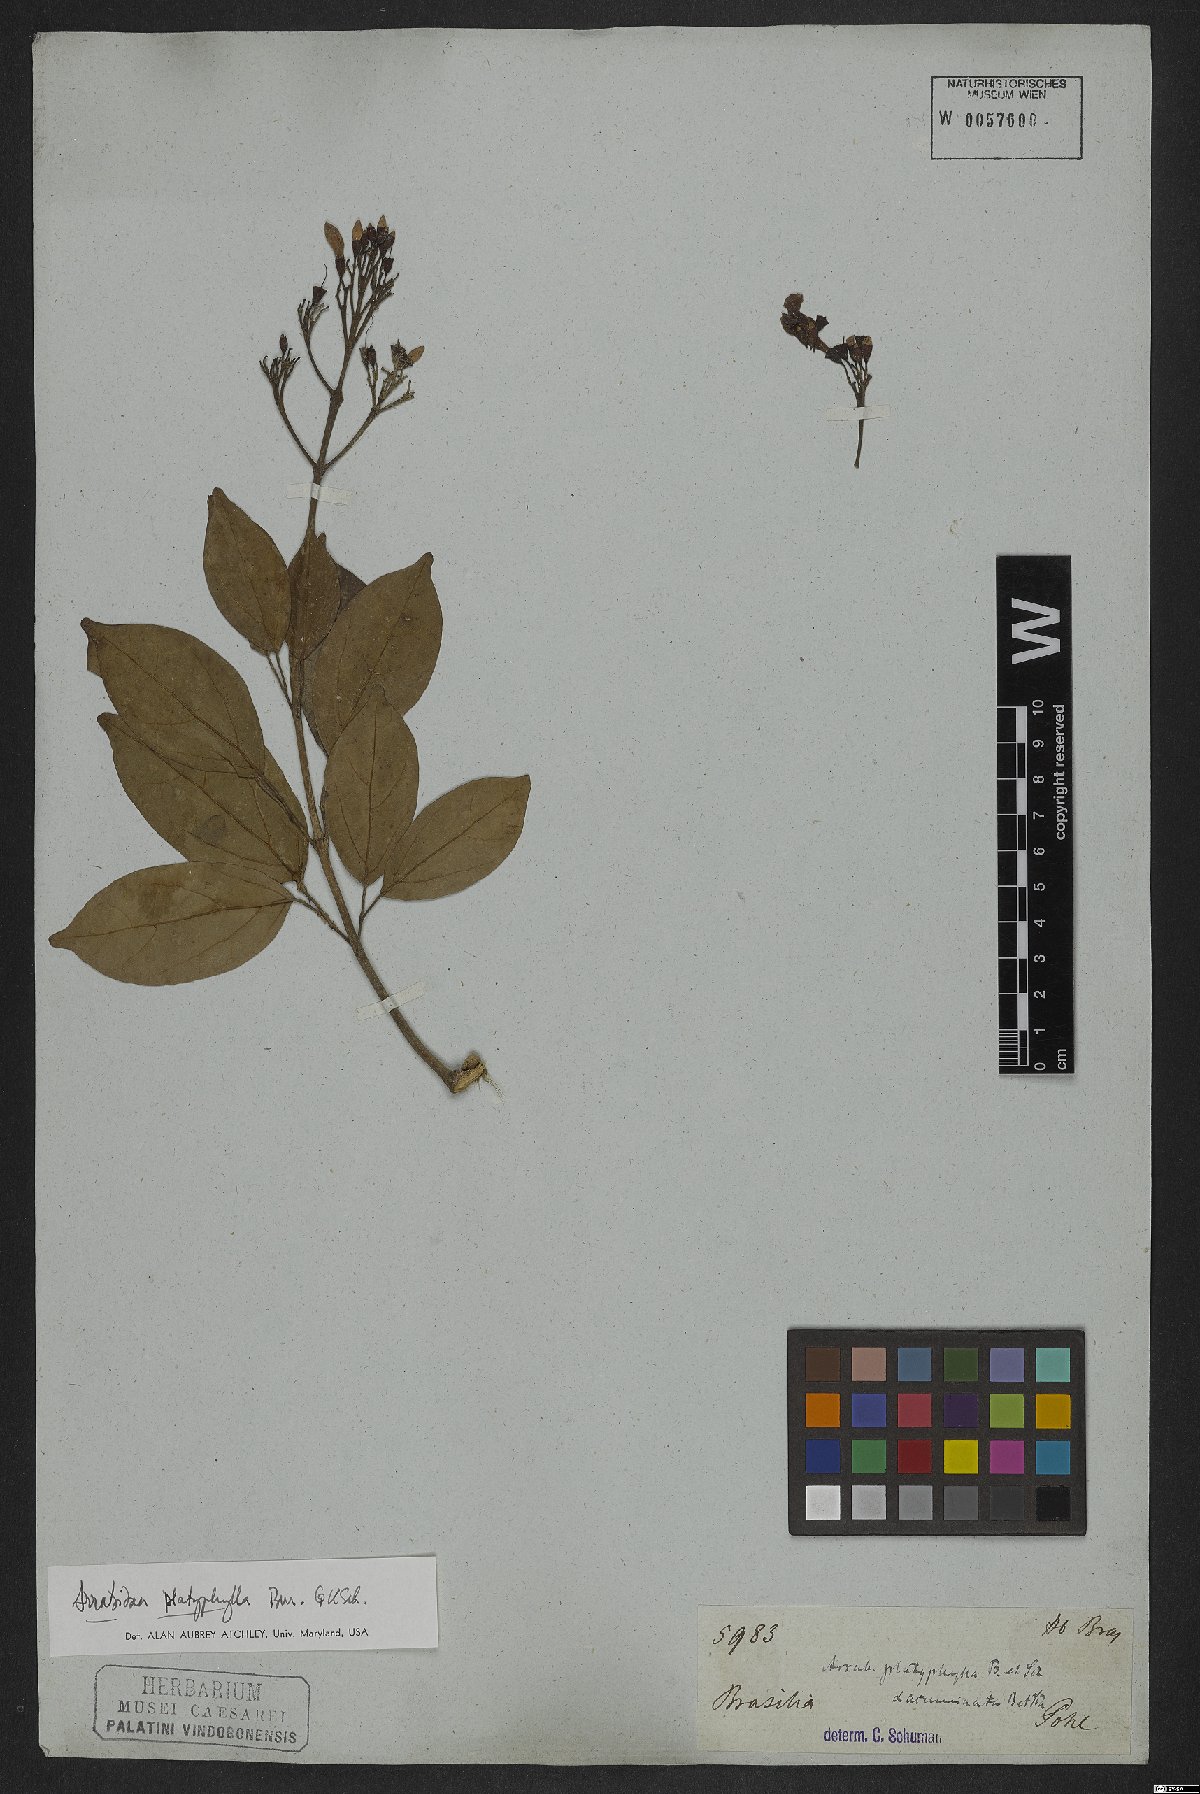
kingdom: Plantae
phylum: Tracheophyta
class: Magnoliopsida
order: Lamiales
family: Bignoniaceae
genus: Xylophragma
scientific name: Xylophragma platyphyllum
